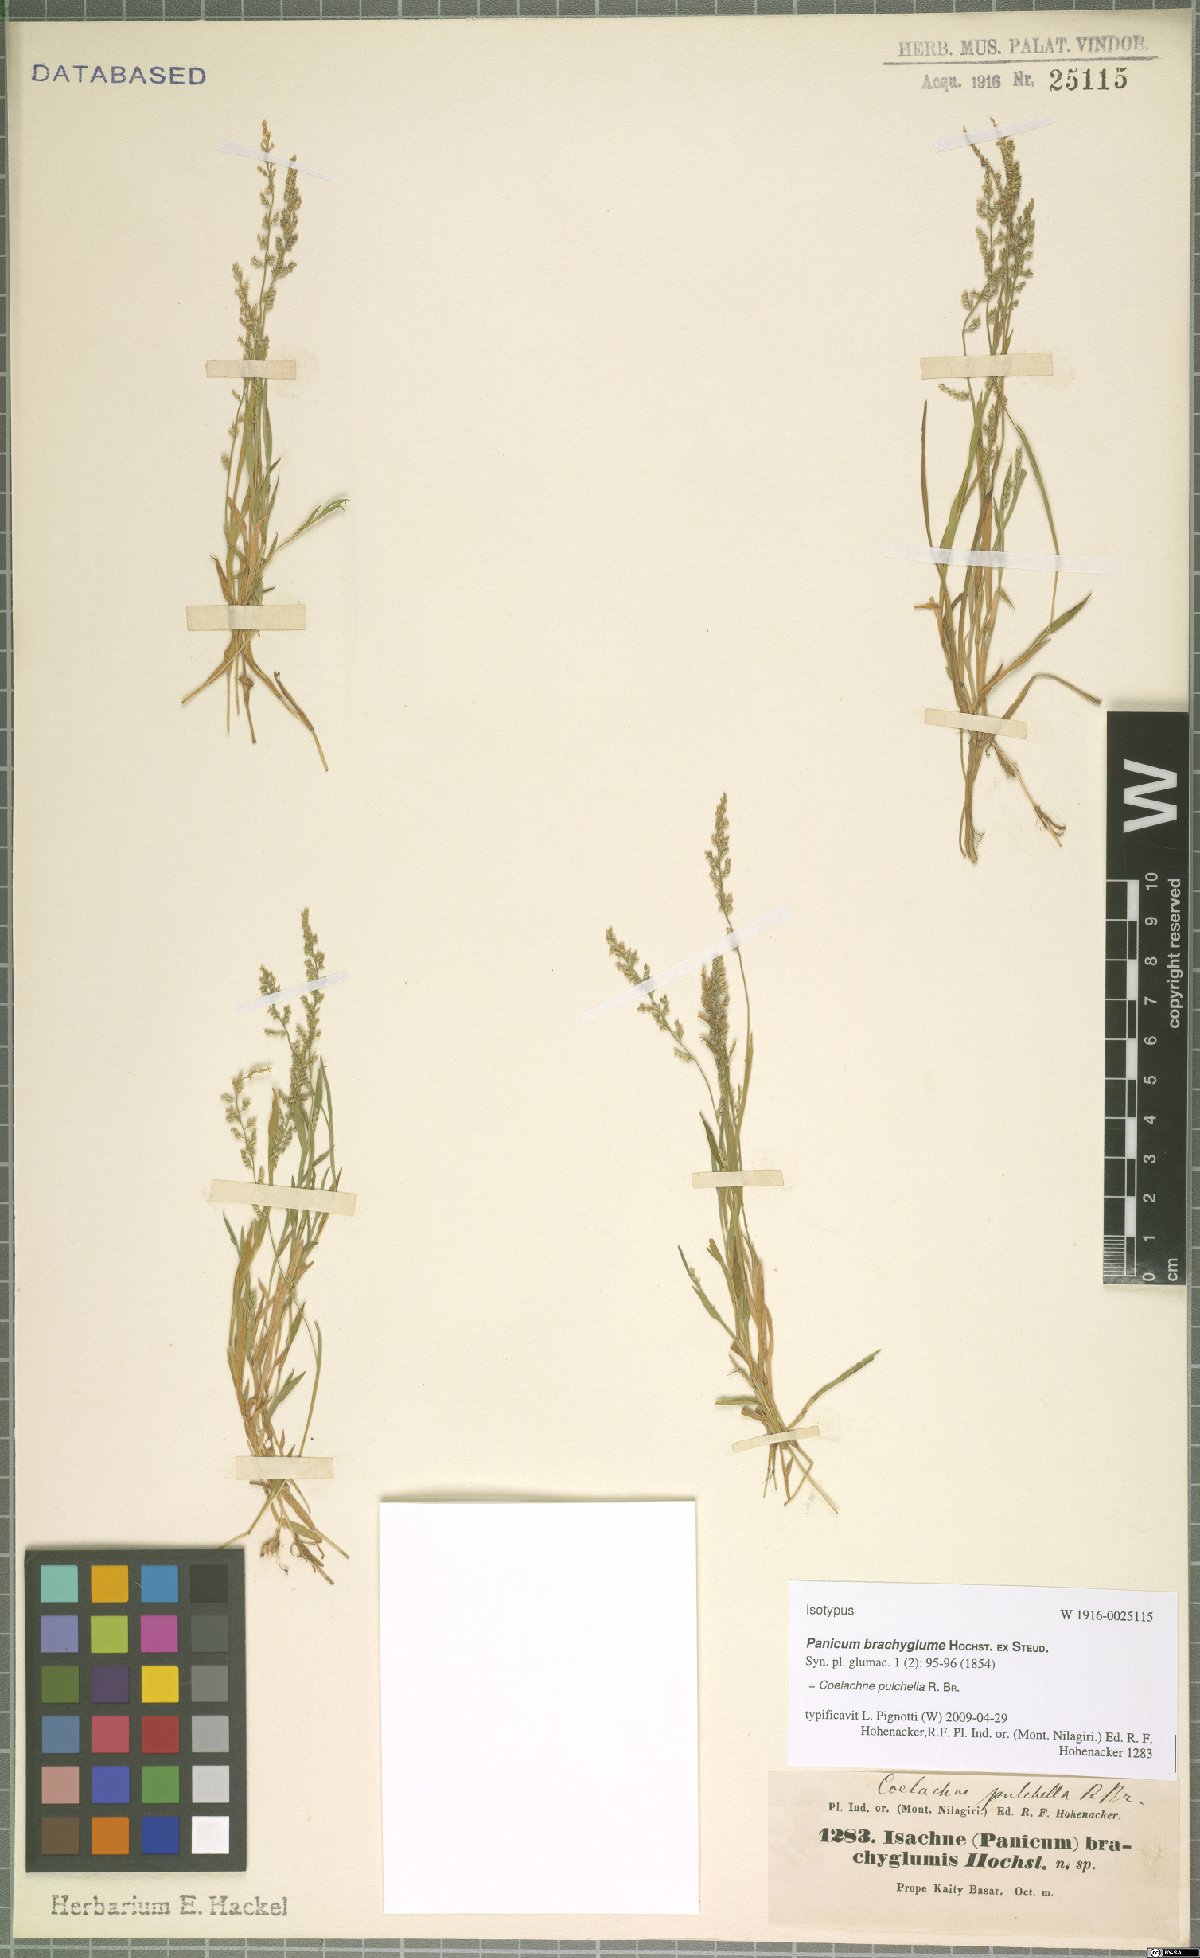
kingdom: Plantae
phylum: Tracheophyta
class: Liliopsida
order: Poales
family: Poaceae
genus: Coelachne
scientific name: Coelachne pulchella
